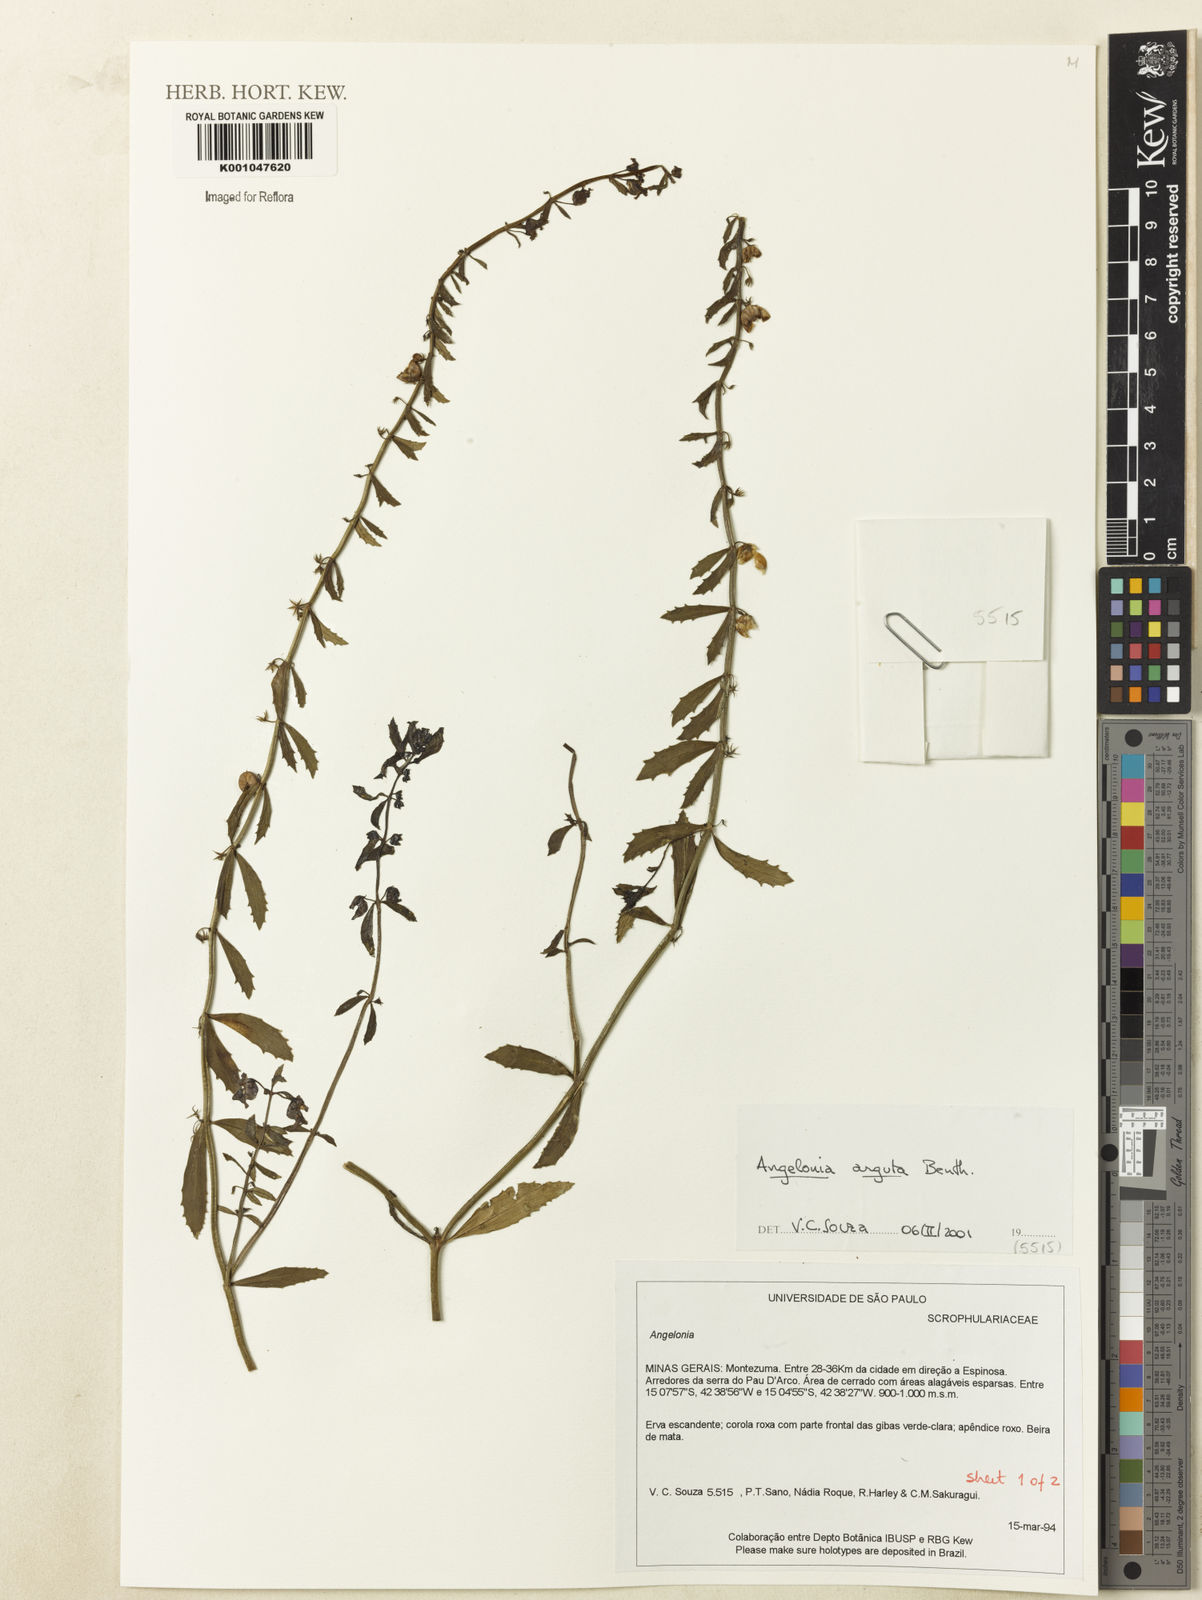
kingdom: Plantae
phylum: Tracheophyta
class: Magnoliopsida
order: Lamiales
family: Plantaginaceae
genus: Angelonia
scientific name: Angelonia arguta
